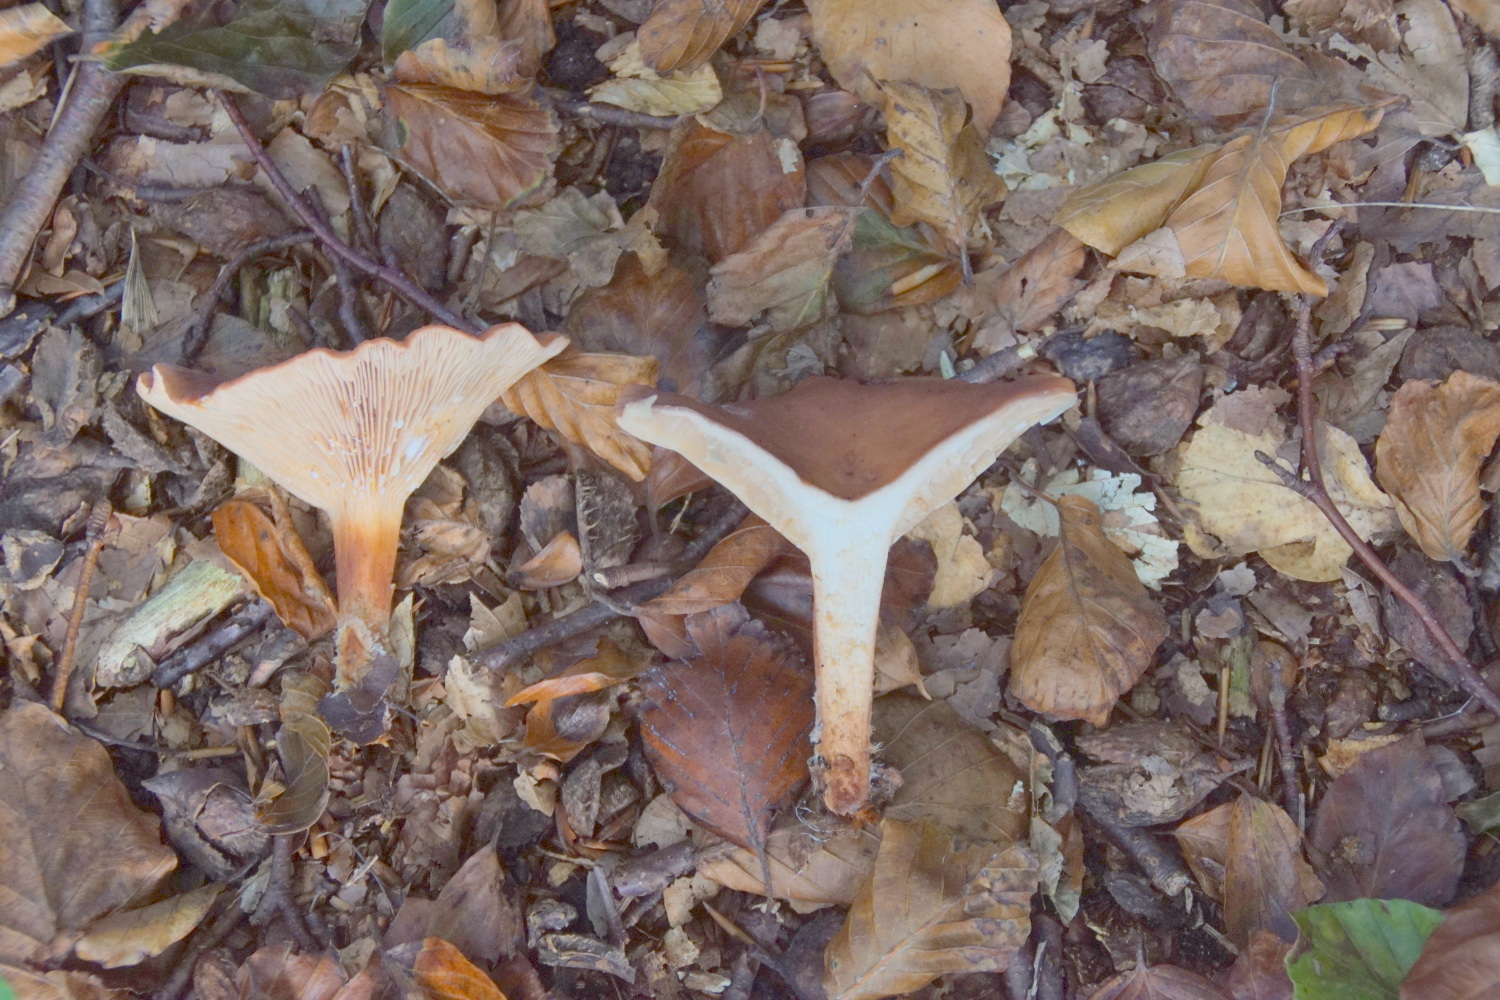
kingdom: Fungi
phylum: Basidiomycota
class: Agaricomycetes
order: Russulales
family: Russulaceae
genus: Lactarius
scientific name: Lactarius subdulcis
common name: sødlig mælkehat
